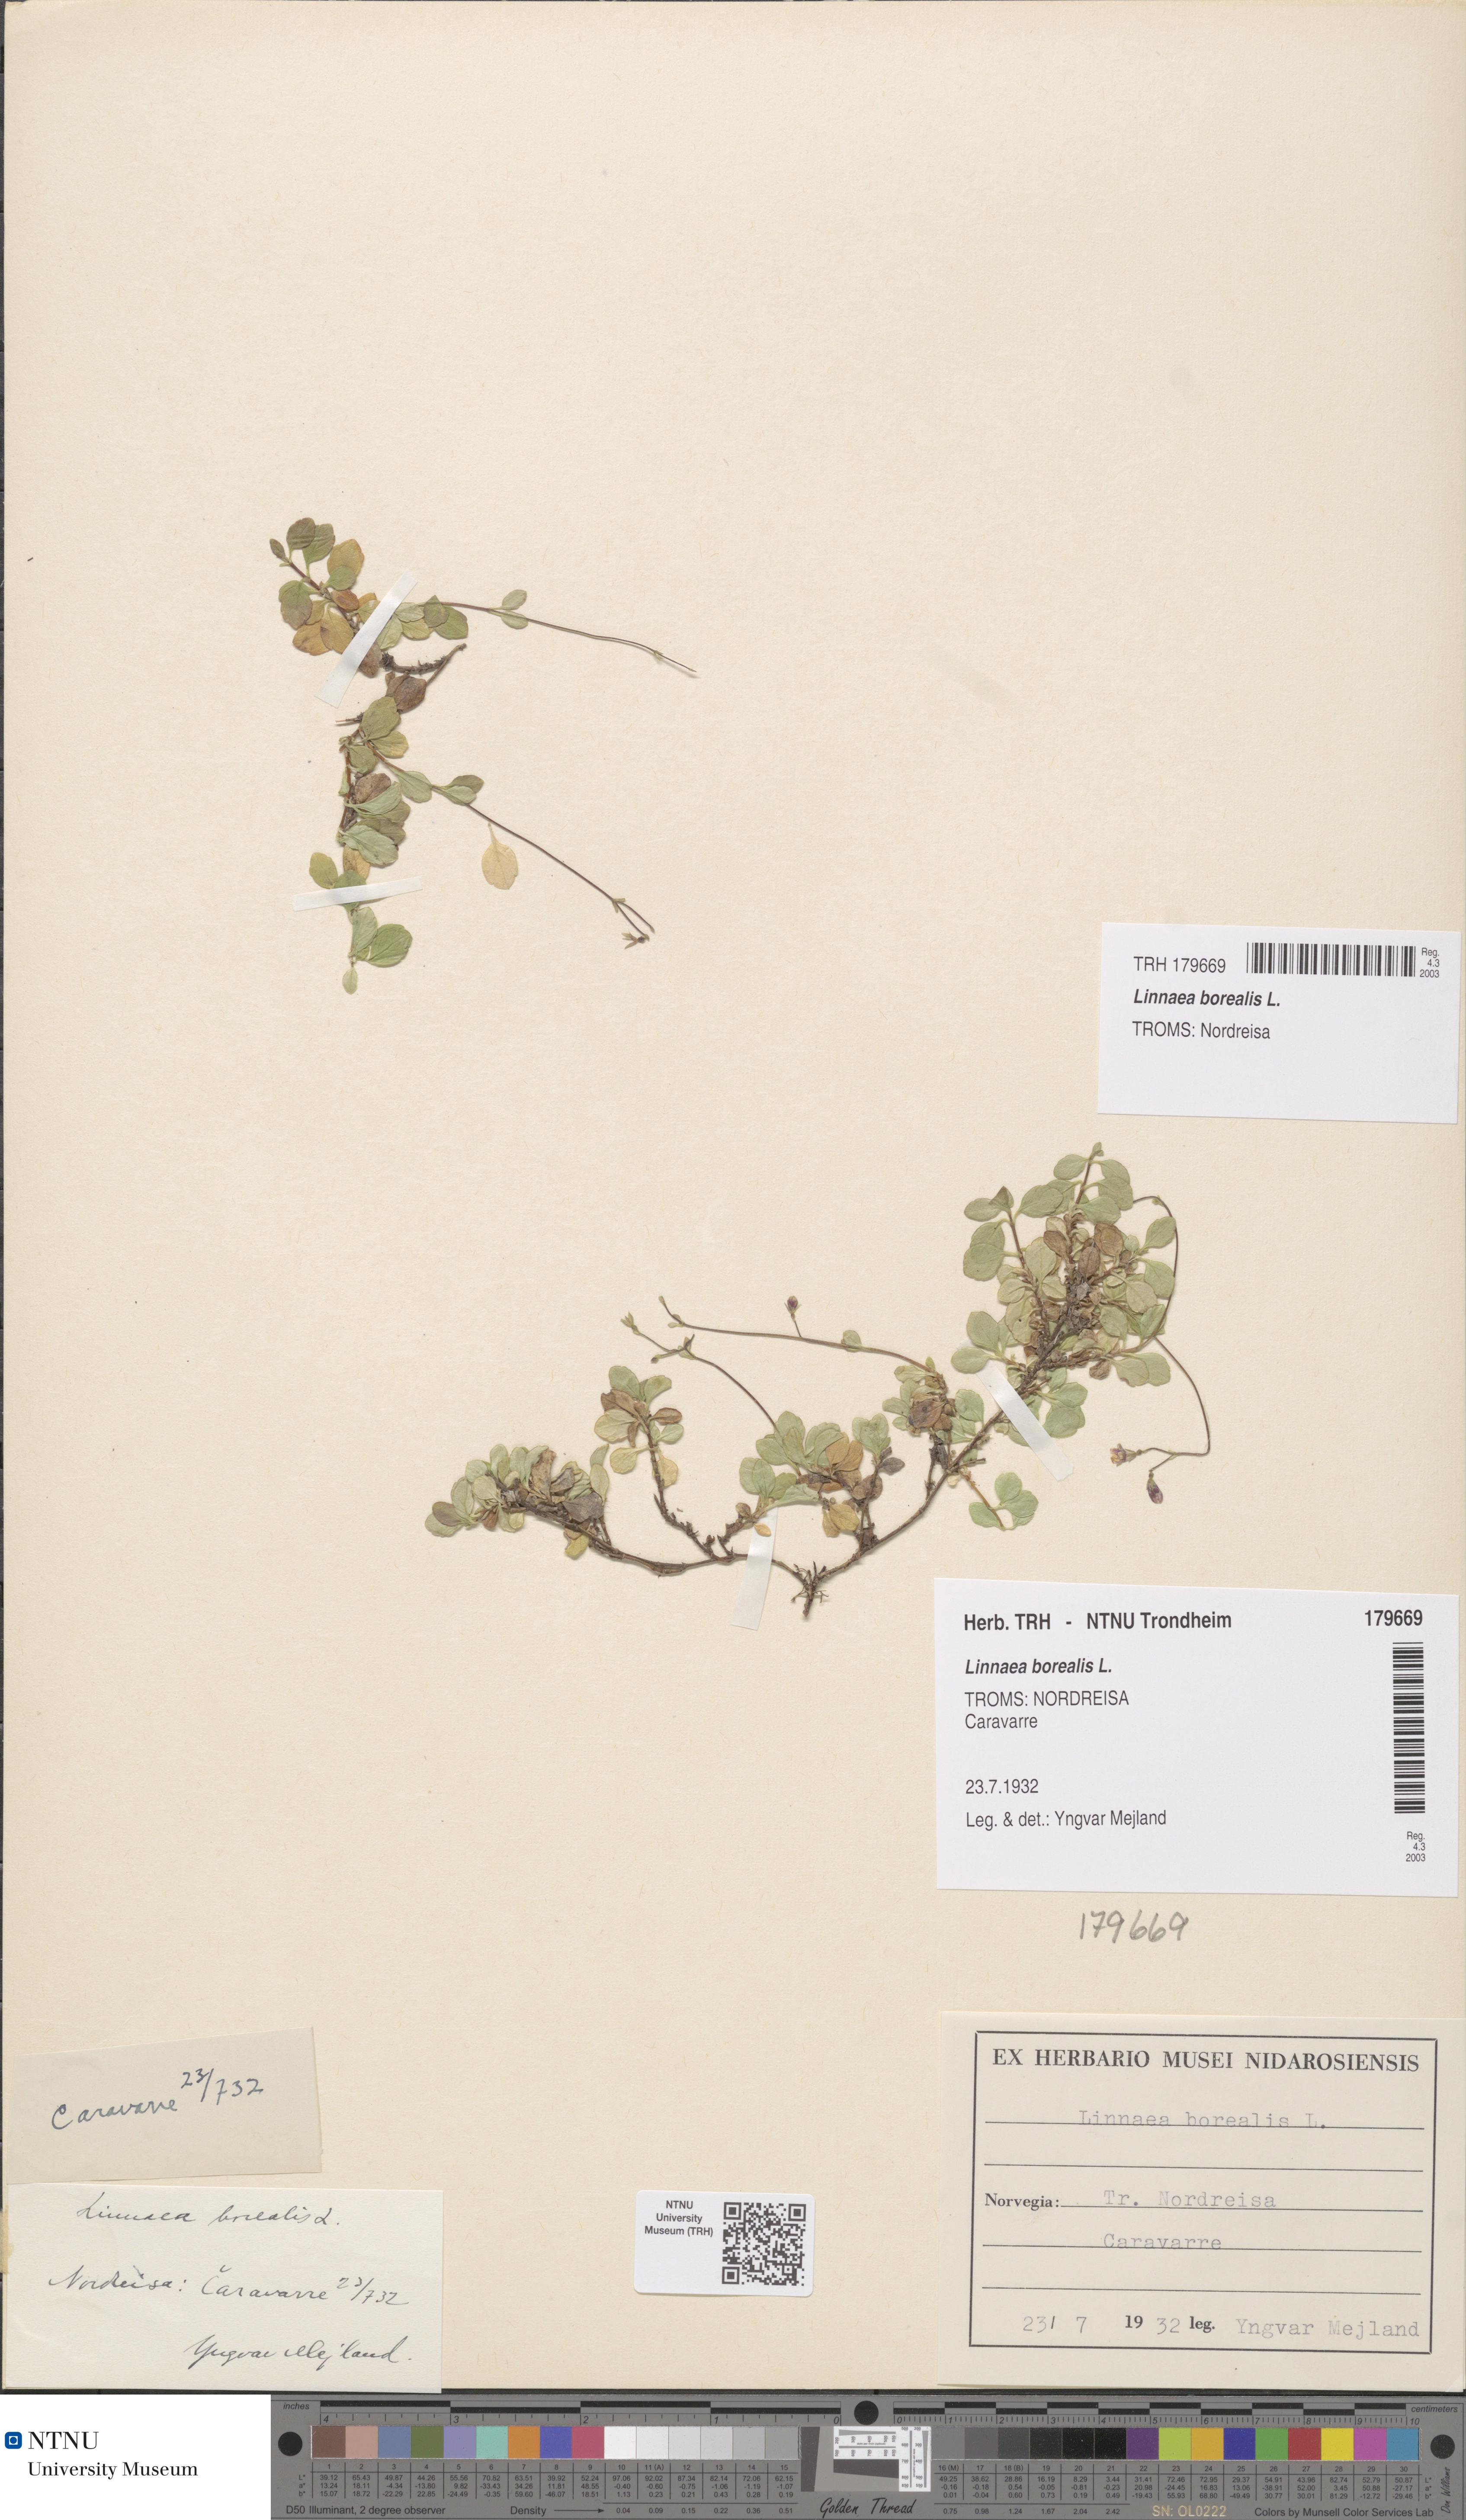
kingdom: Plantae
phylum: Tracheophyta
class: Magnoliopsida
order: Dipsacales
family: Caprifoliaceae
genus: Linnaea
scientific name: Linnaea borealis
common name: Twinflower
